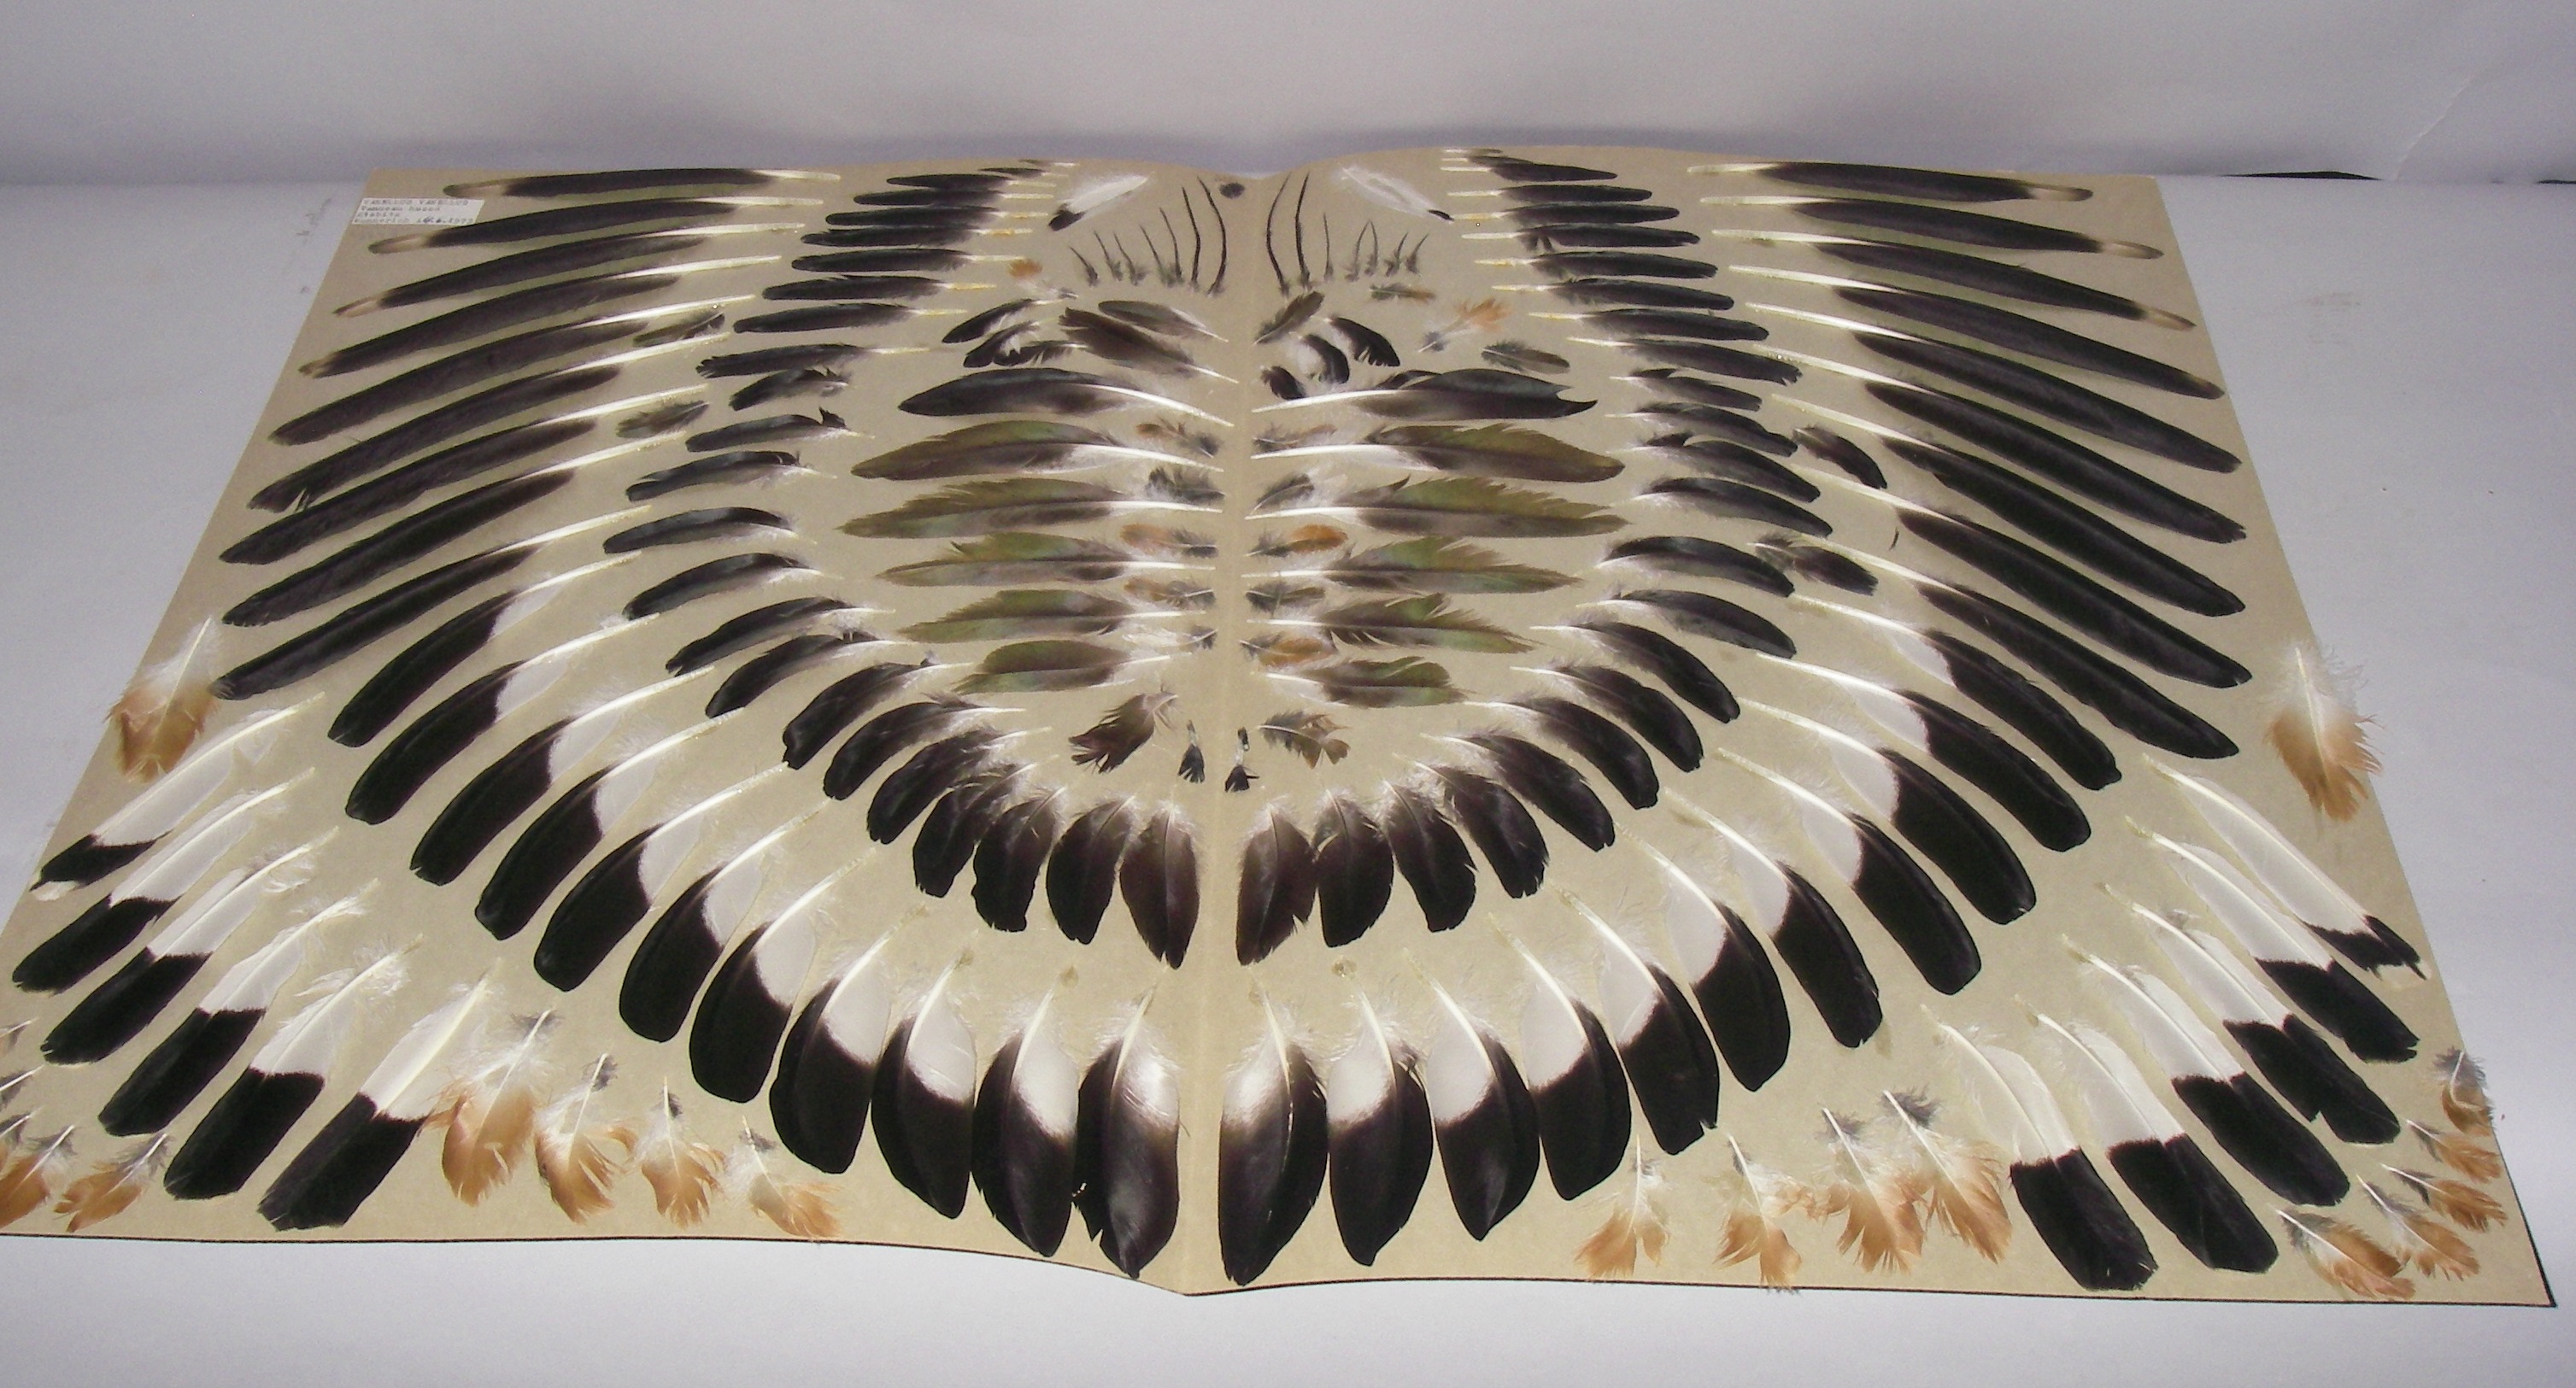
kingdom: Animalia
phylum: Chordata
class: Aves
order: Charadriiformes
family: Charadriidae
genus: Vanellus
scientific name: Vanellus vanellus
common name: Northern lapwing
